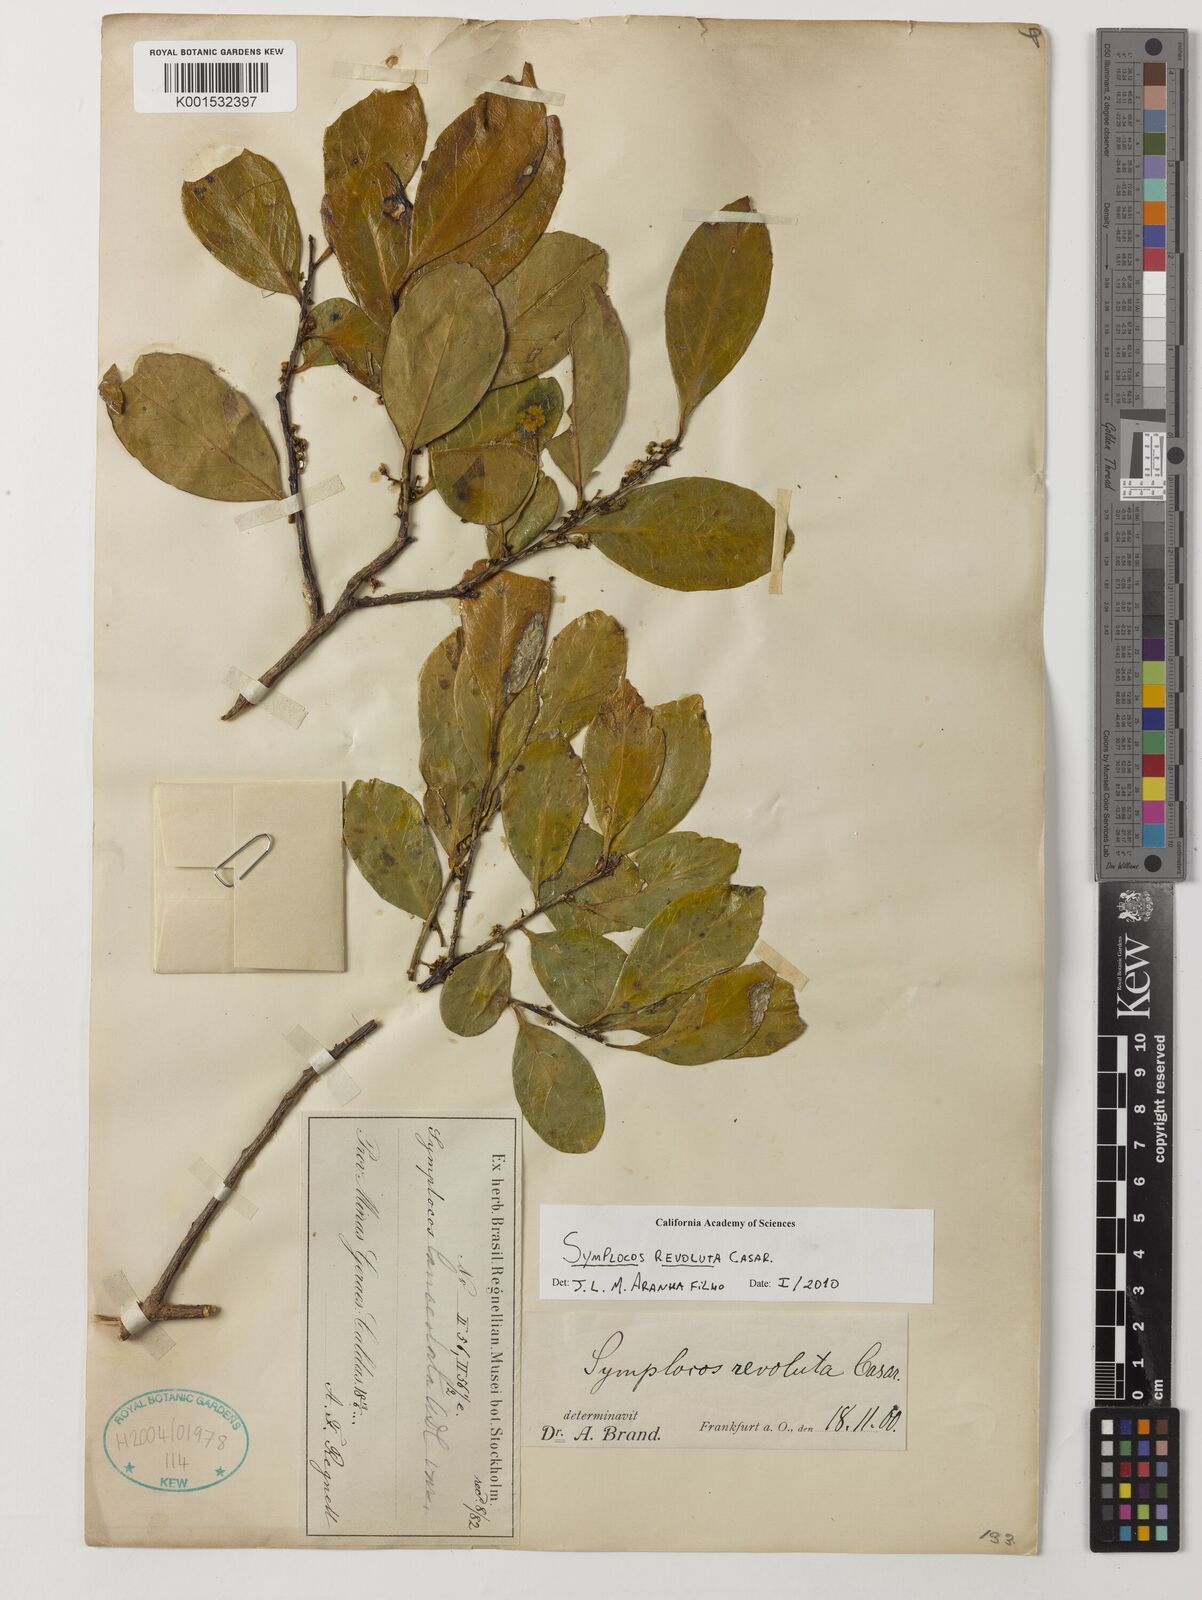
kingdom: Plantae
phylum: Tracheophyta
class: Magnoliopsida
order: Ericales
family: Symplocaceae
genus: Symplocos
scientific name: Symplocos revoluta
